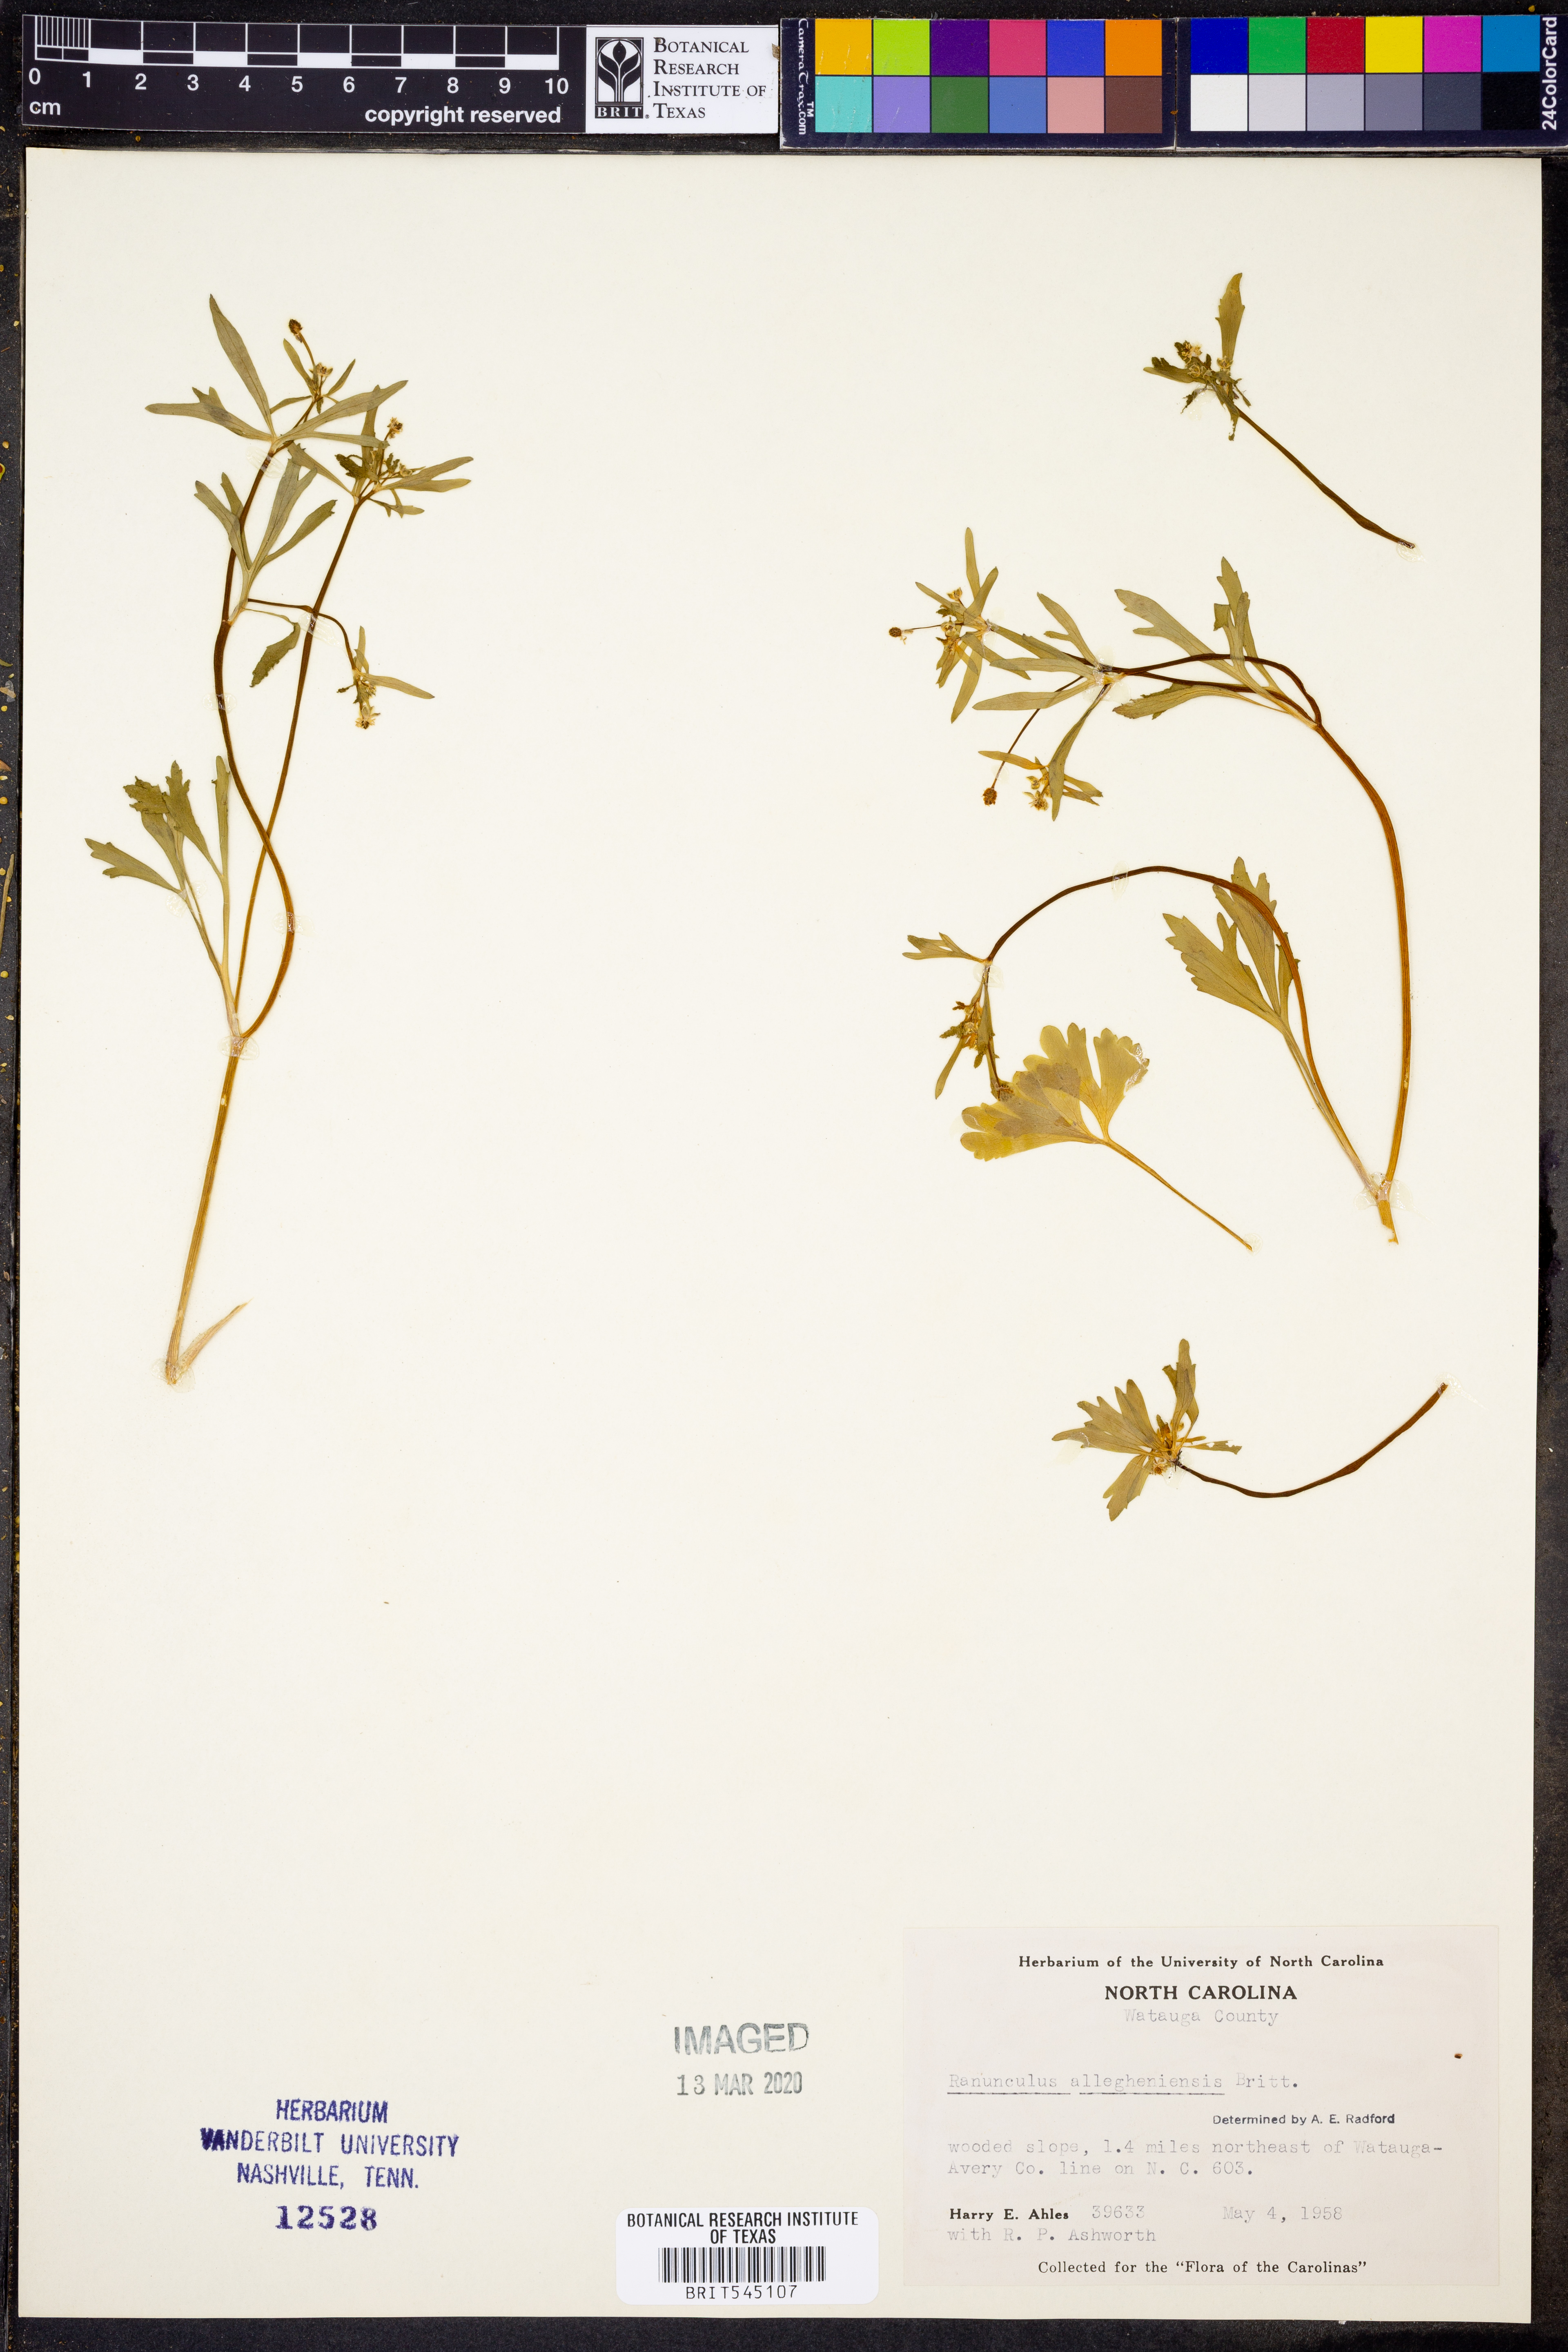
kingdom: Plantae
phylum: Tracheophyta
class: Magnoliopsida
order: Ranunculales
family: Ranunculaceae
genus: Ranunculus
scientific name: Ranunculus allegheniensis
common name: Allegheny mountain buttercup
